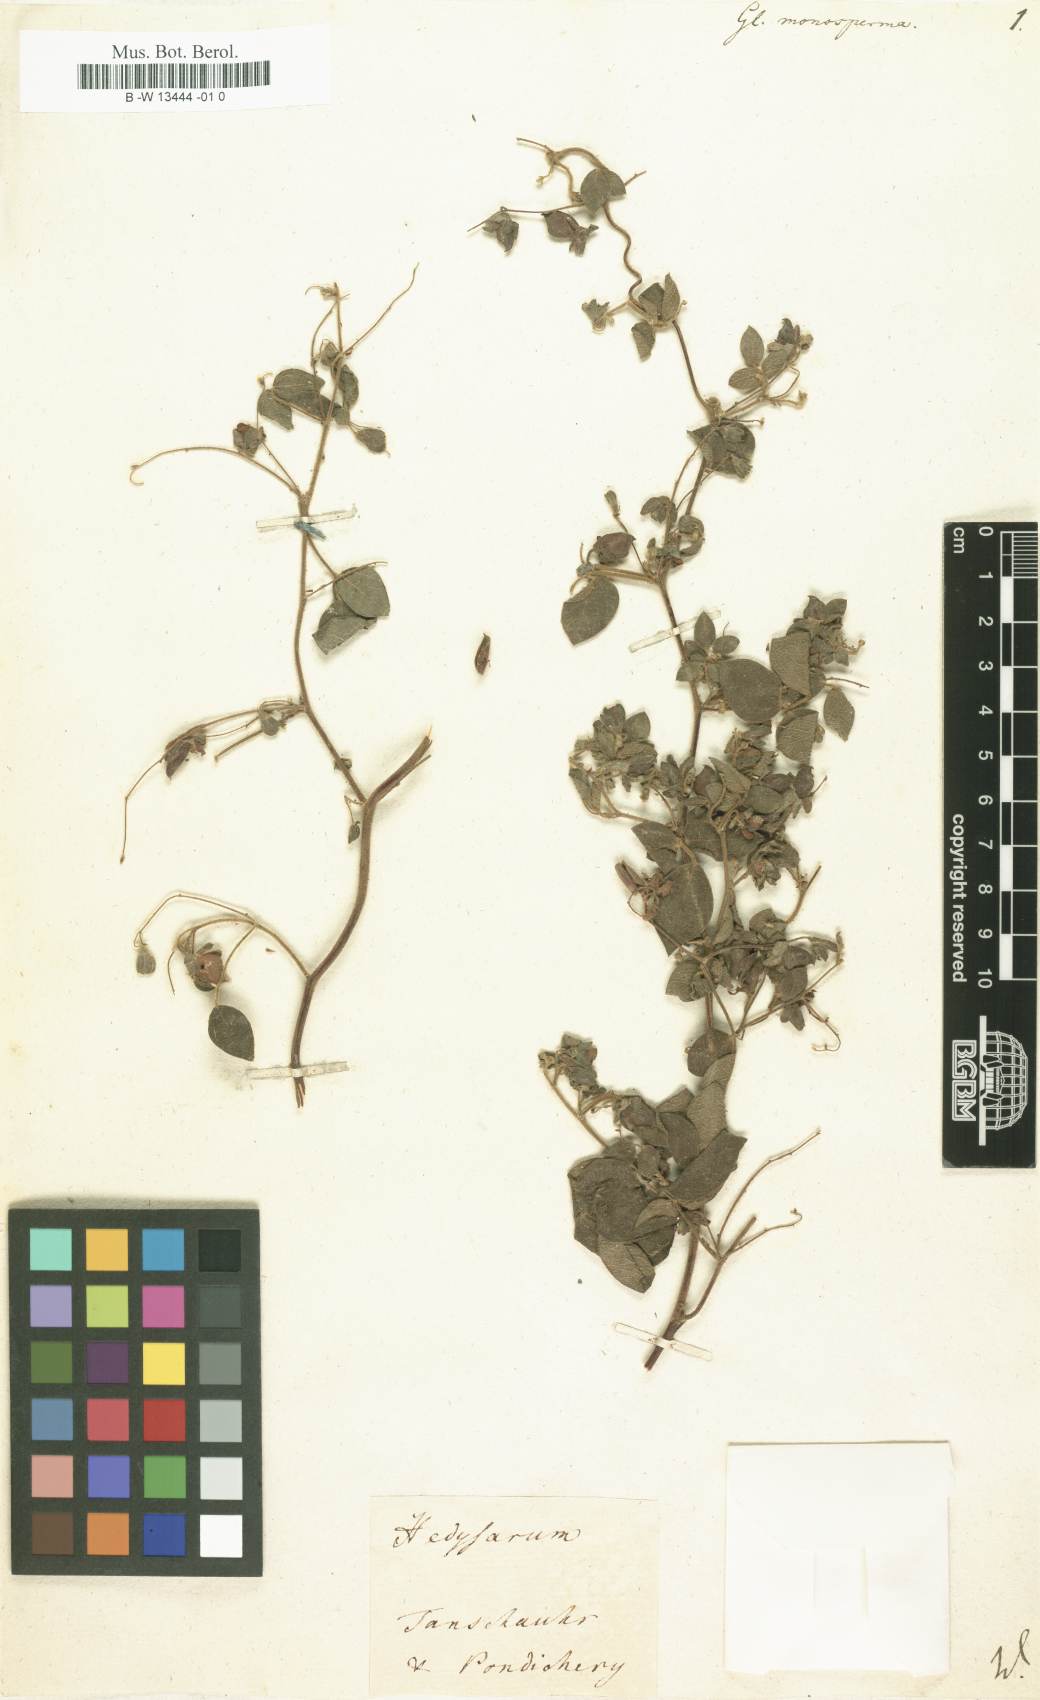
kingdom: Plantae
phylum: Tracheophyta
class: Magnoliopsida
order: Fabales
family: Fabaceae
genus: Rhynchosia
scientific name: Rhynchosia rufescens
